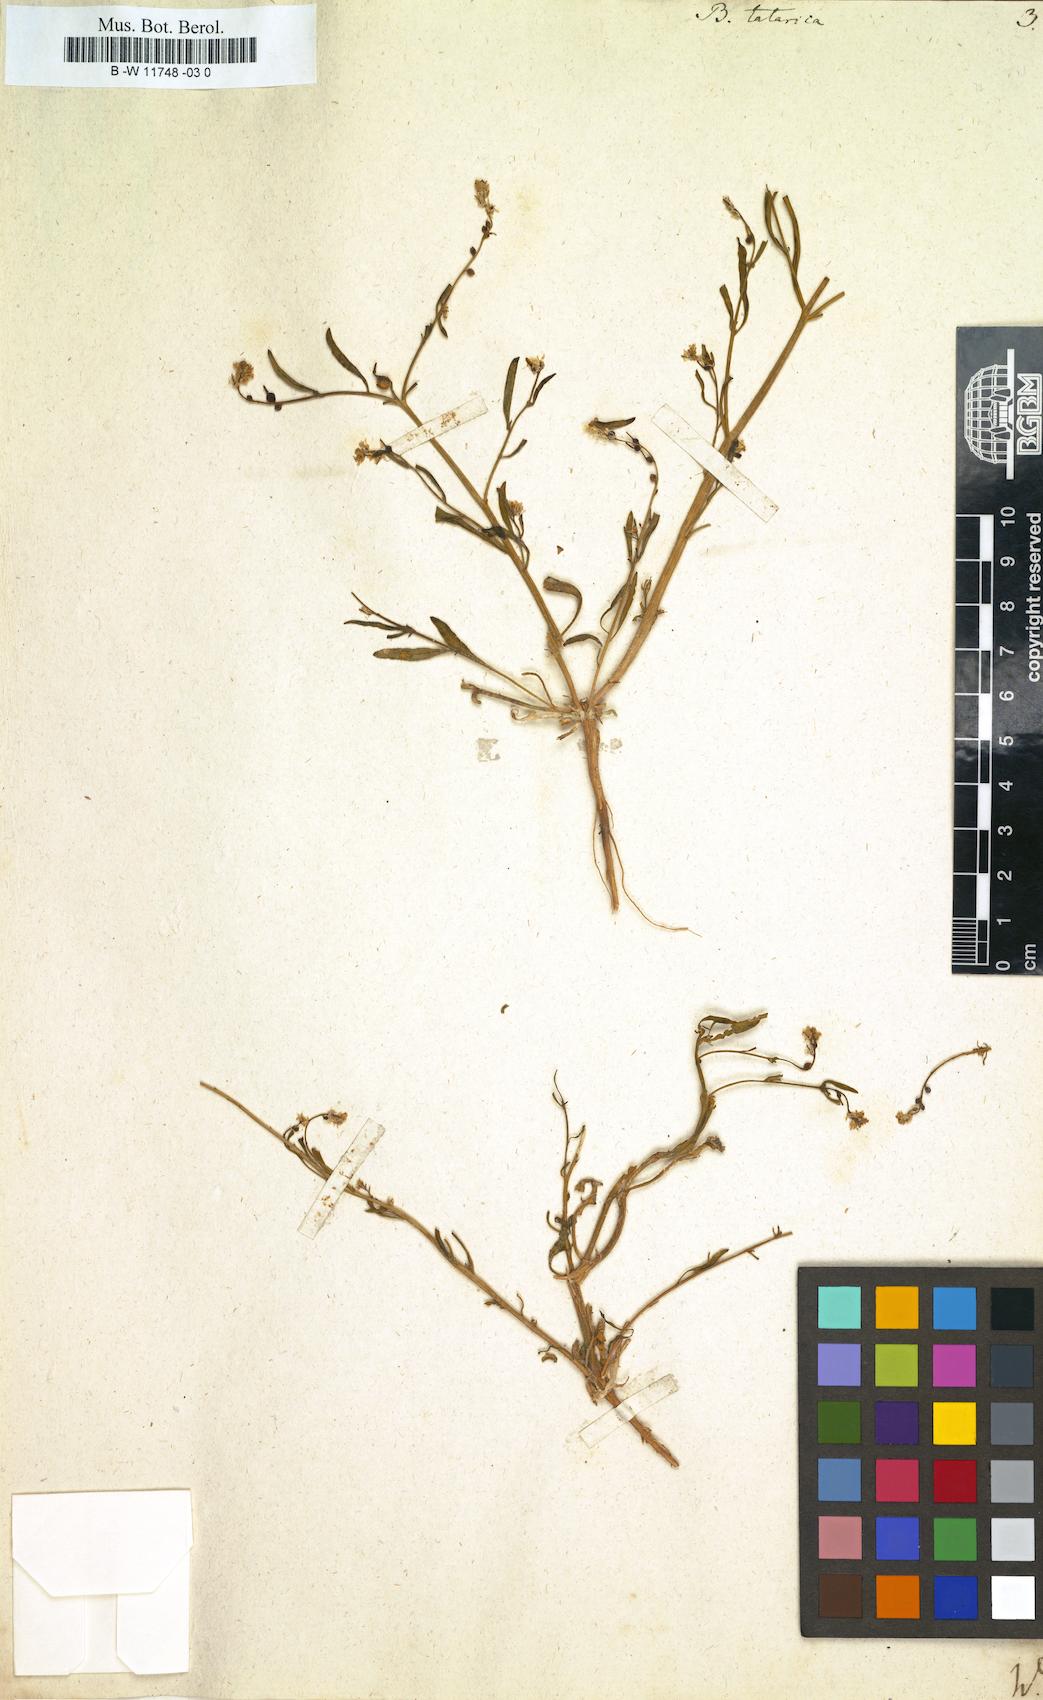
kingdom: Plantae
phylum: Tracheophyta
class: Magnoliopsida
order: Brassicales
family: Brassicaceae
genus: Litwinowia
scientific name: Litwinowia tenuissima
